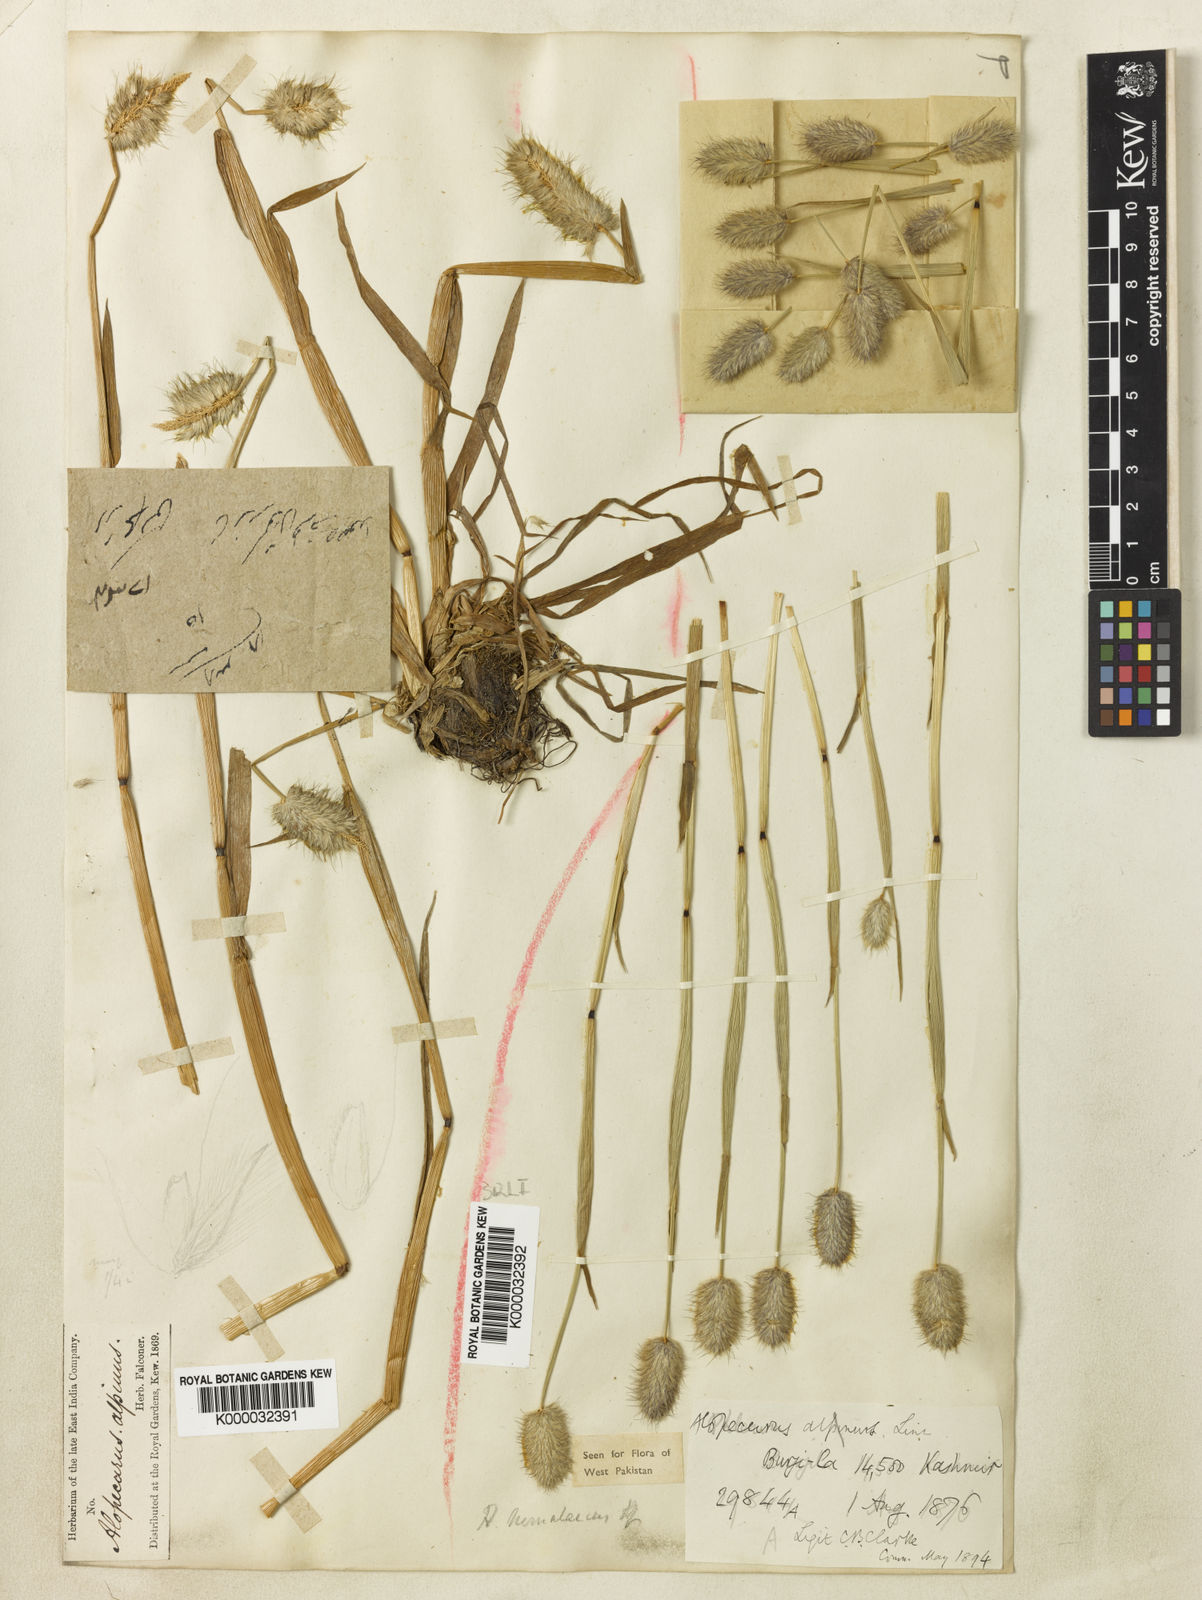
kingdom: Plantae
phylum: Tracheophyta
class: Liliopsida
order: Poales
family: Poaceae
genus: Alopecurus
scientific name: Alopecurus himalaicus
